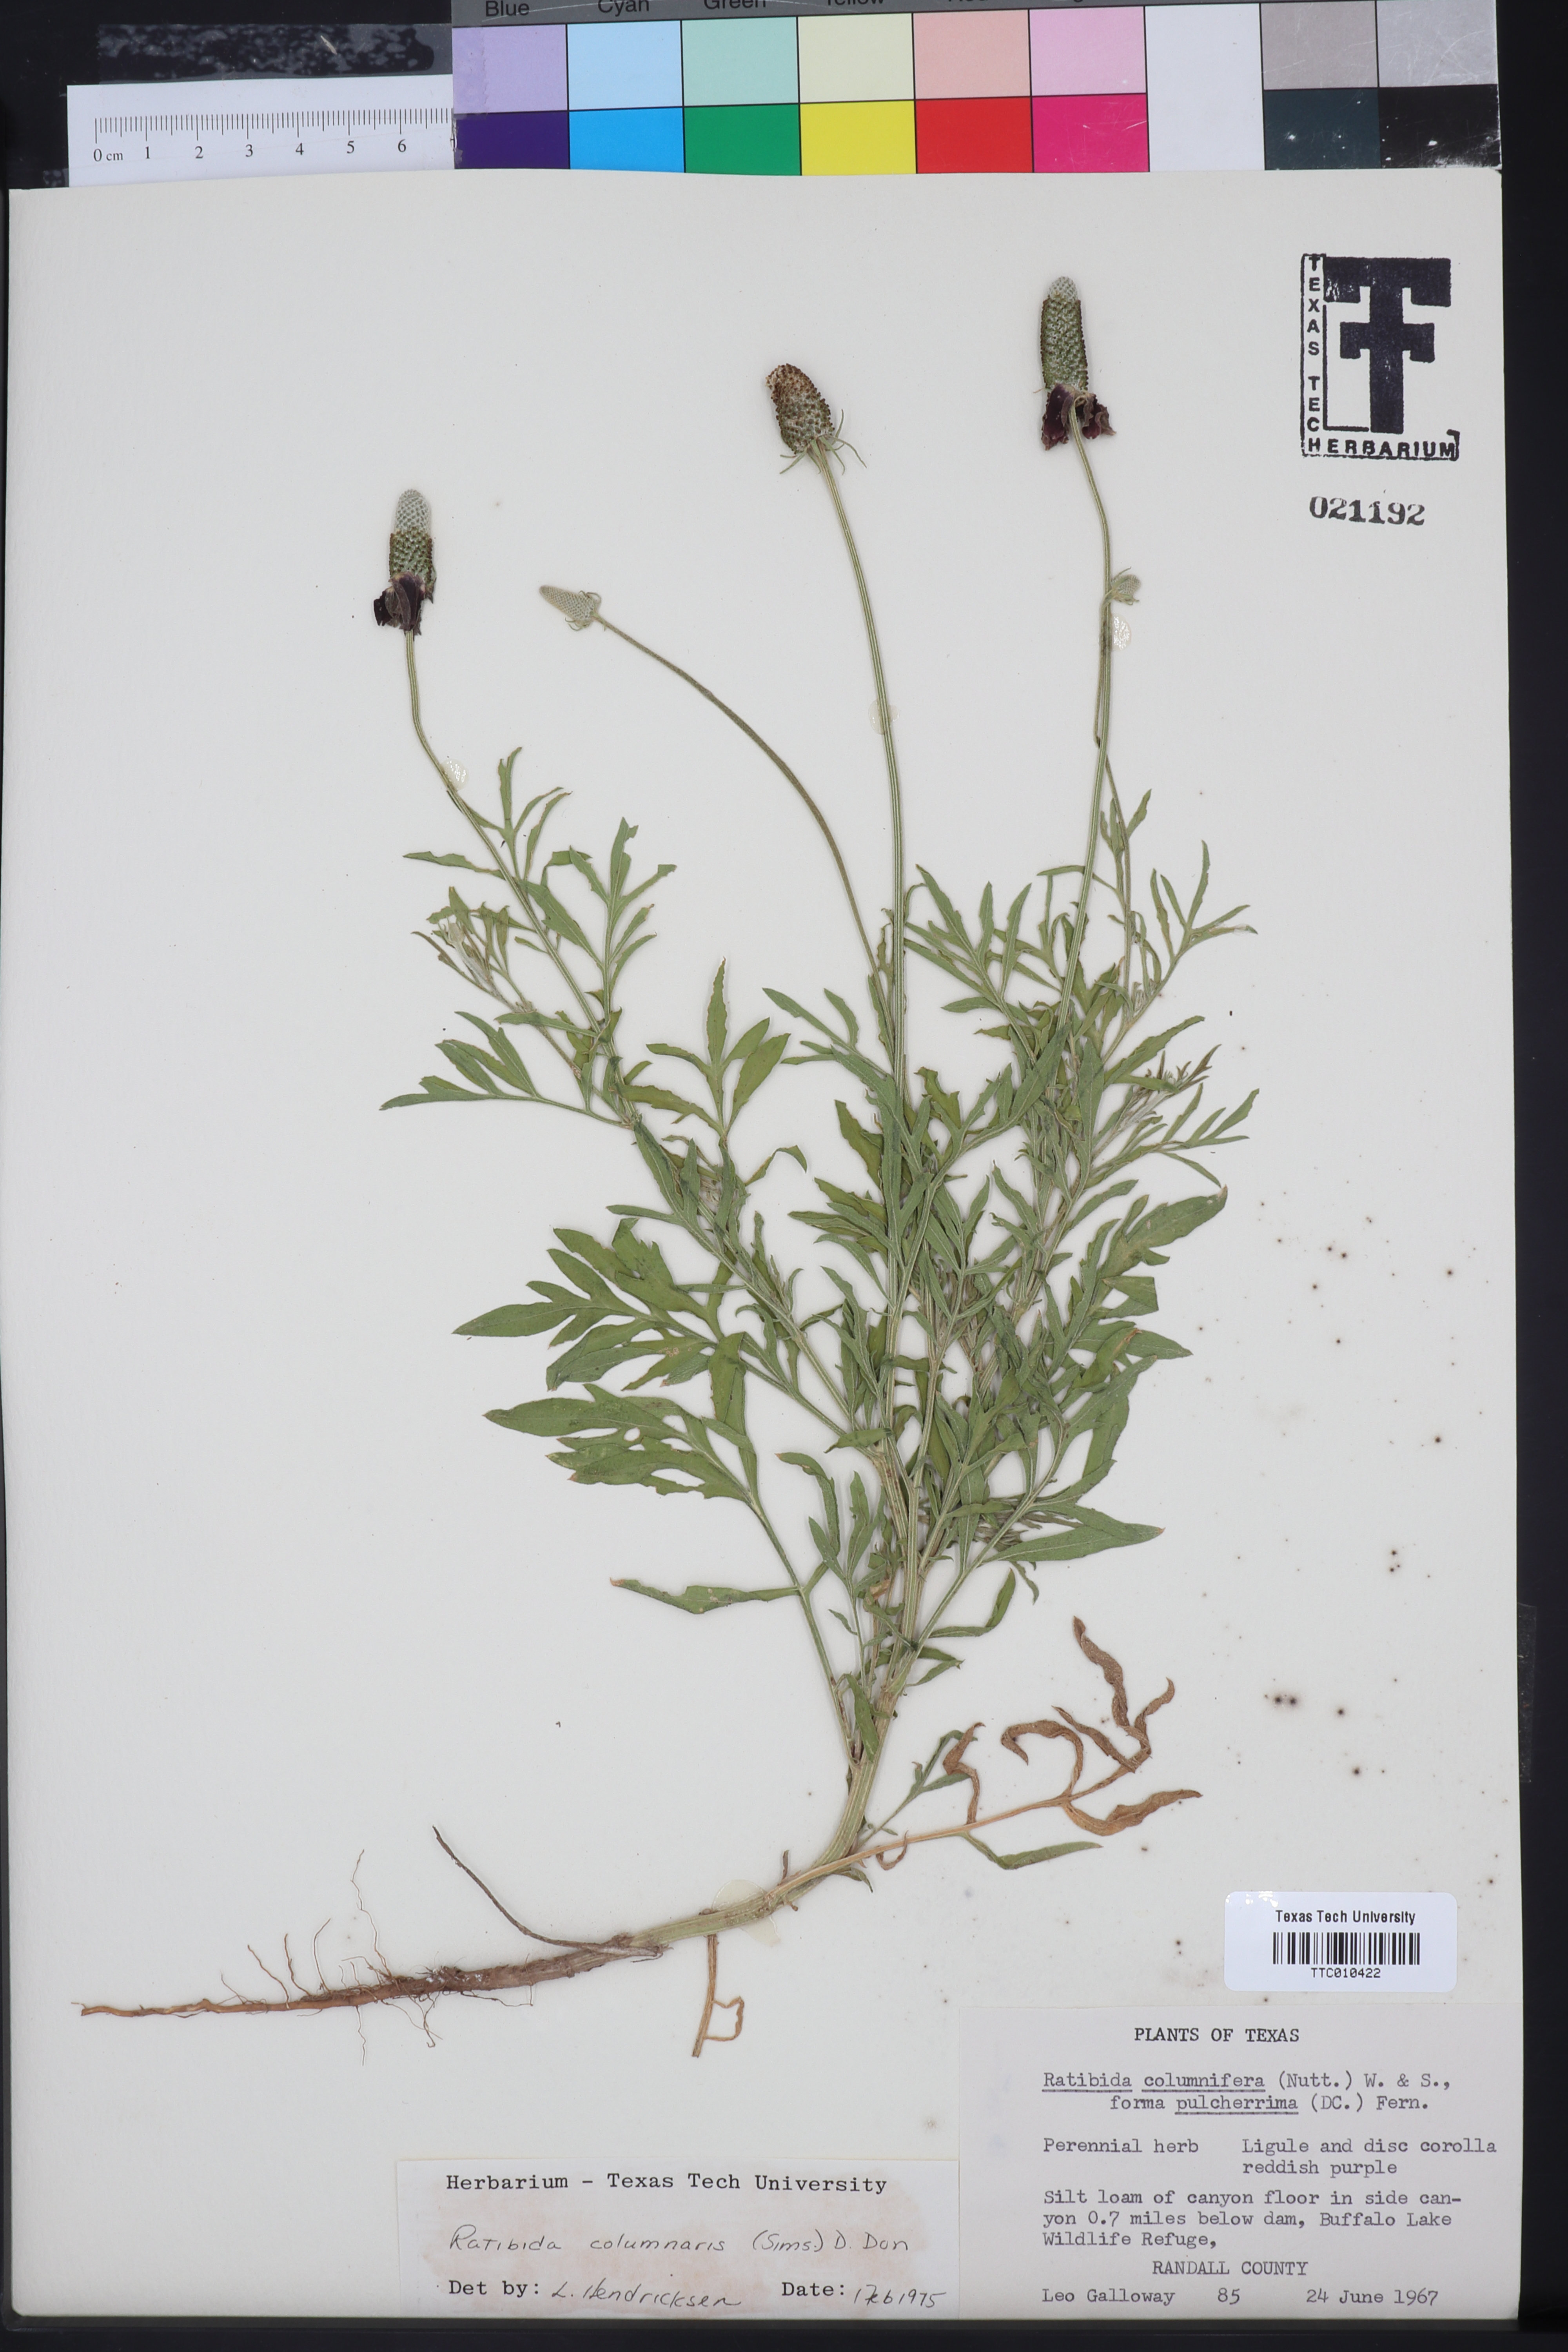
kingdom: Plantae
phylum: Tracheophyta
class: Magnoliopsida
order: Asterales
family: Asteraceae
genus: Ratibida
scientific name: Ratibida columnifera
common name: Prairie coneflower
